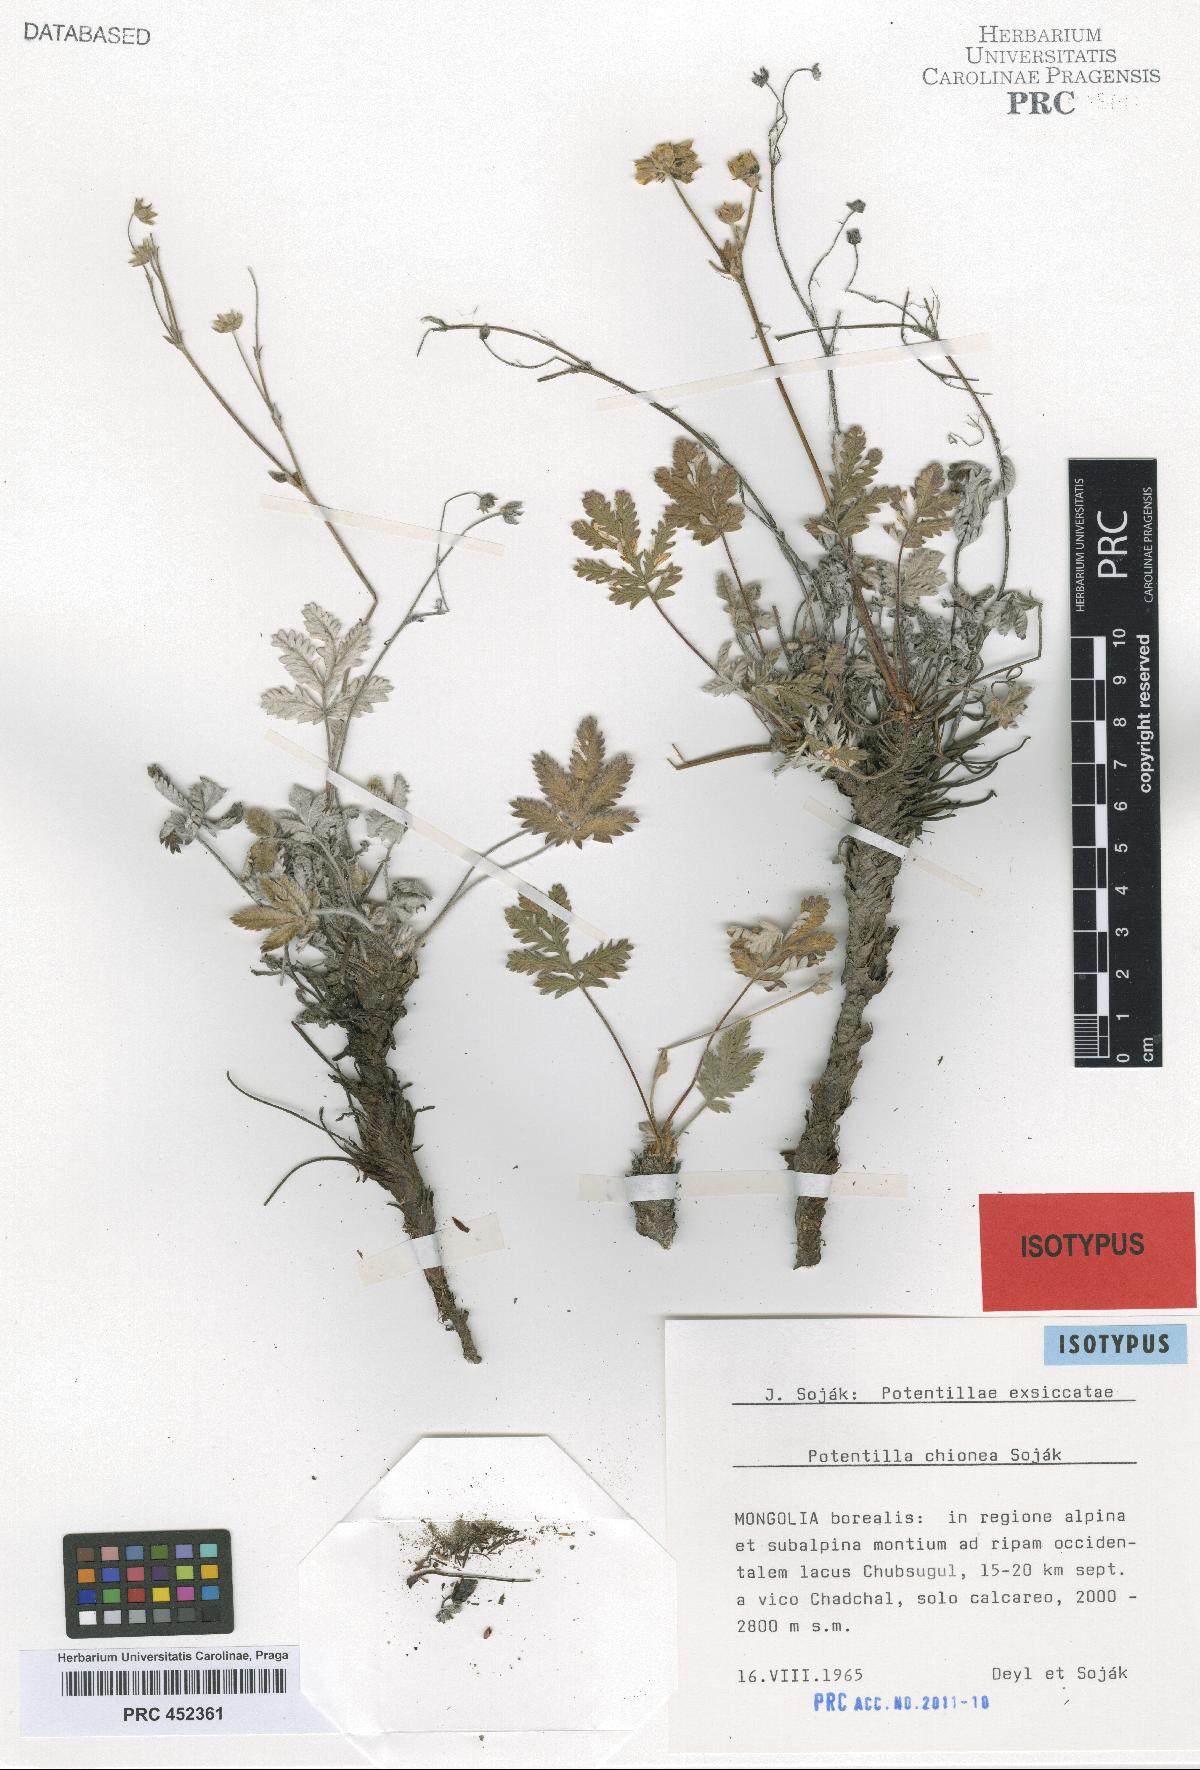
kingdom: Plantae
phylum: Tracheophyta
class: Magnoliopsida
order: Rosales
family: Rosaceae
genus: Potentilla
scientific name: Potentilla chionea
